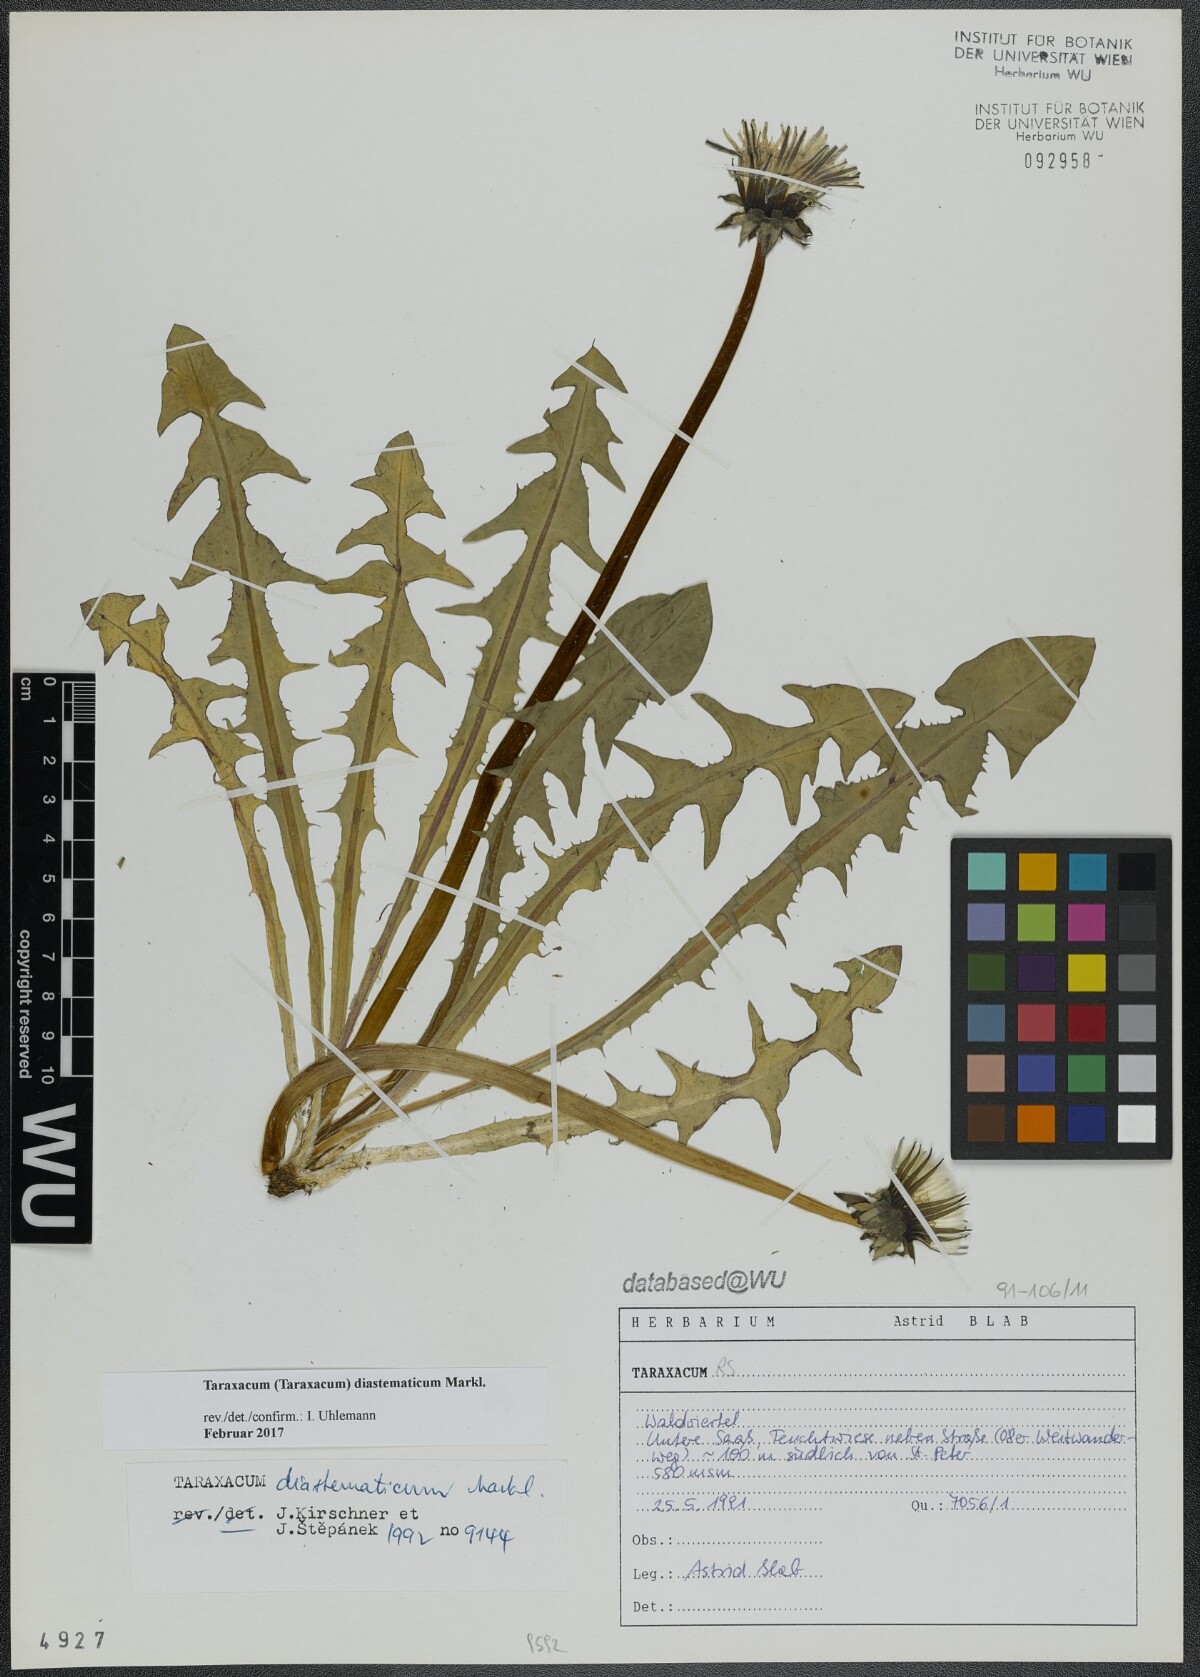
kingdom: Plantae
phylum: Tracheophyta
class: Magnoliopsida
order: Asterales
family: Asteraceae
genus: Taraxacum
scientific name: Taraxacum diastematicum
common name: Bulbous-lobed dandelion
